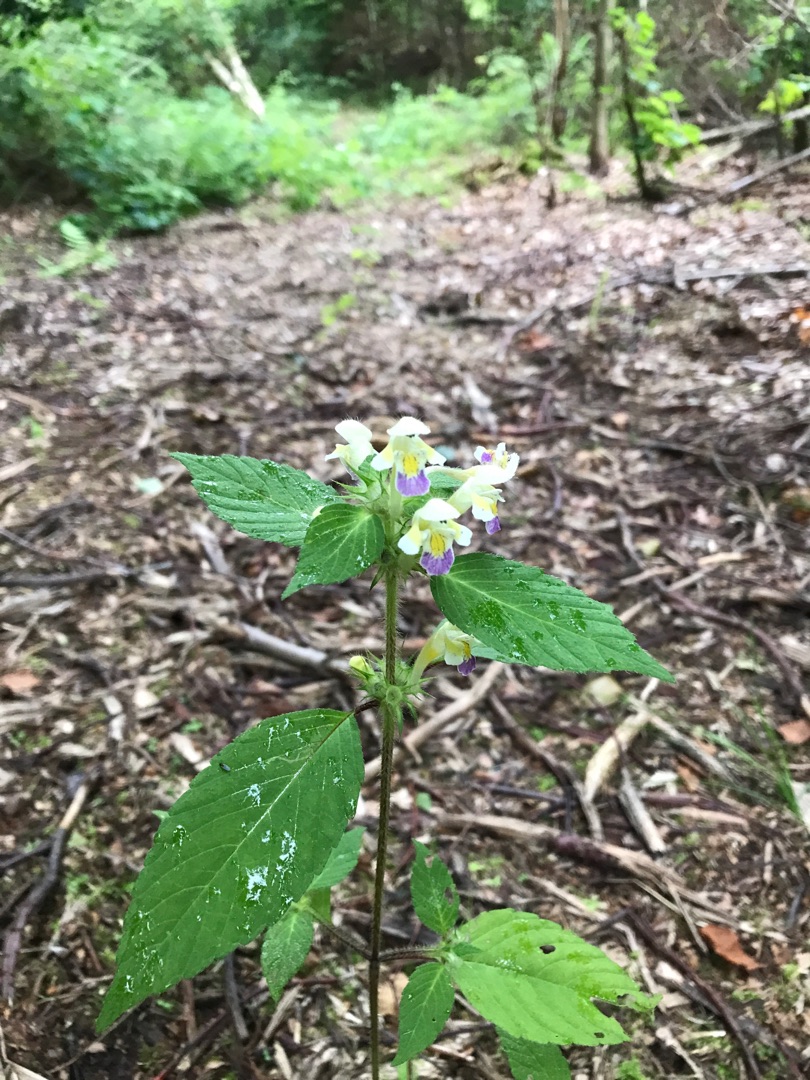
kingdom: Plantae
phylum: Tracheophyta
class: Magnoliopsida
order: Lamiales
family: Lamiaceae
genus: Galeopsis
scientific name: Galeopsis speciosa
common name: Hamp-hanekro
